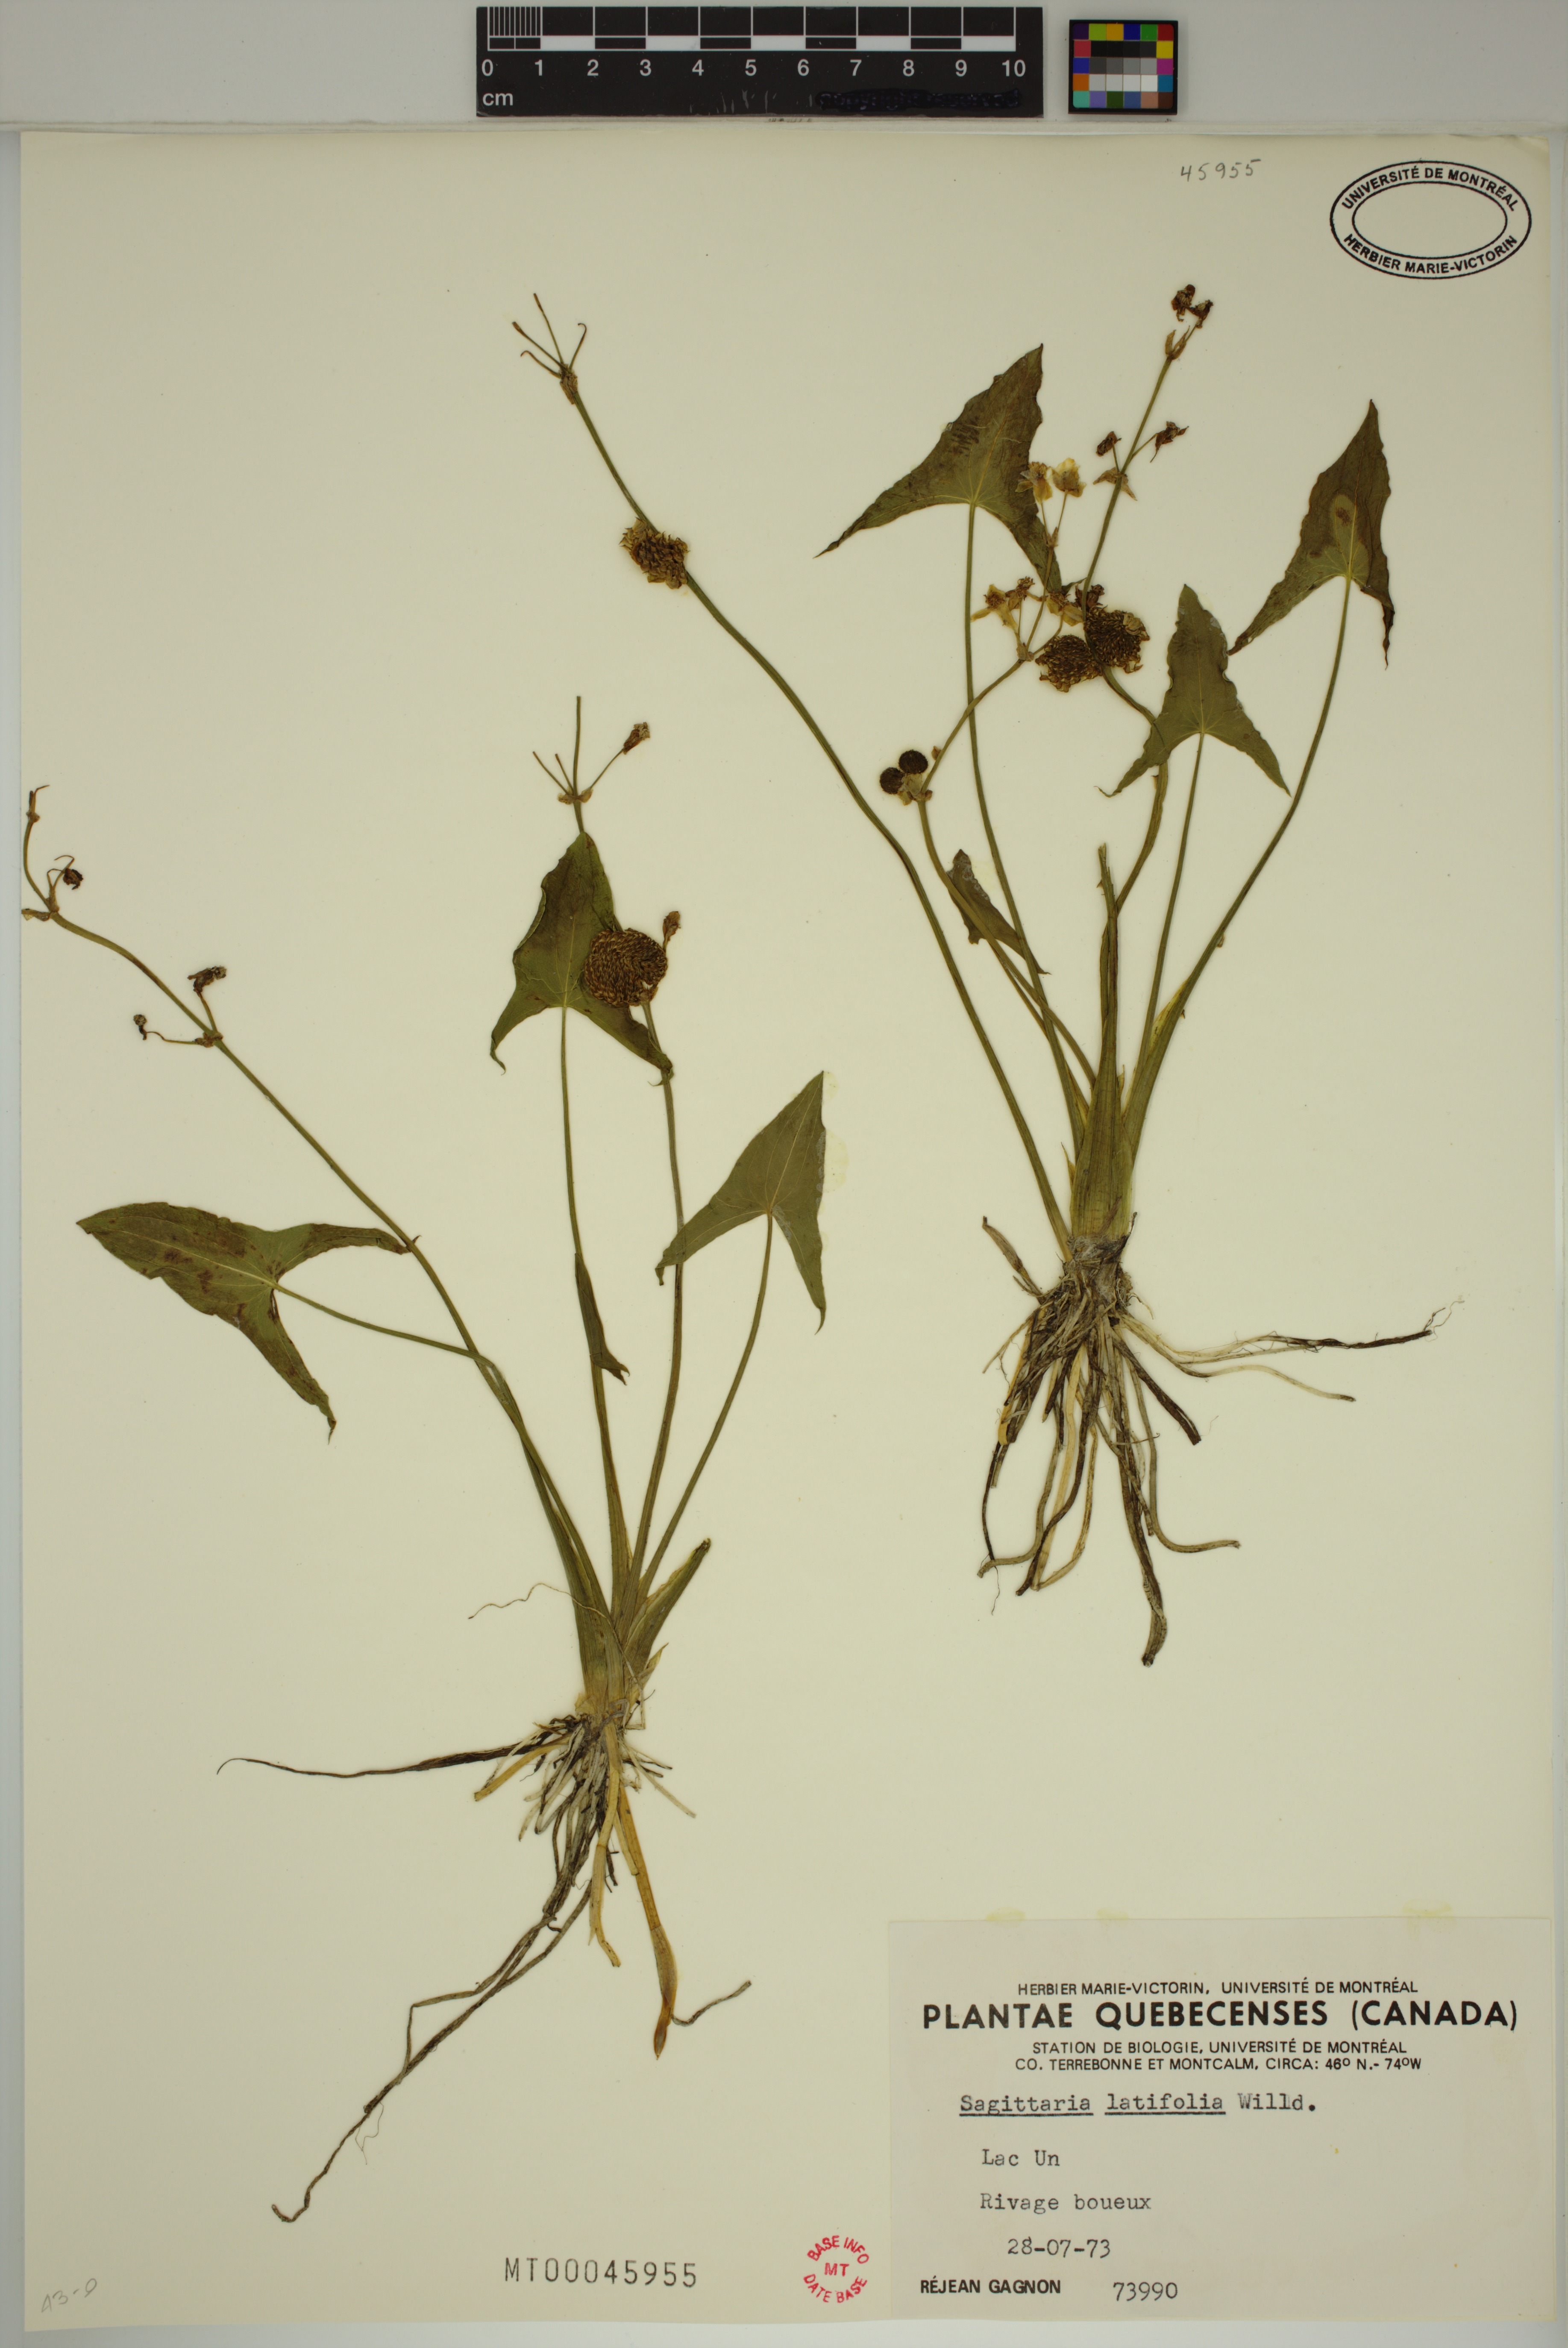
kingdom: Plantae
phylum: Tracheophyta
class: Liliopsida
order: Alismatales
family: Alismataceae
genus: Sagittaria
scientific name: Sagittaria latifolia
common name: Duck-potato
